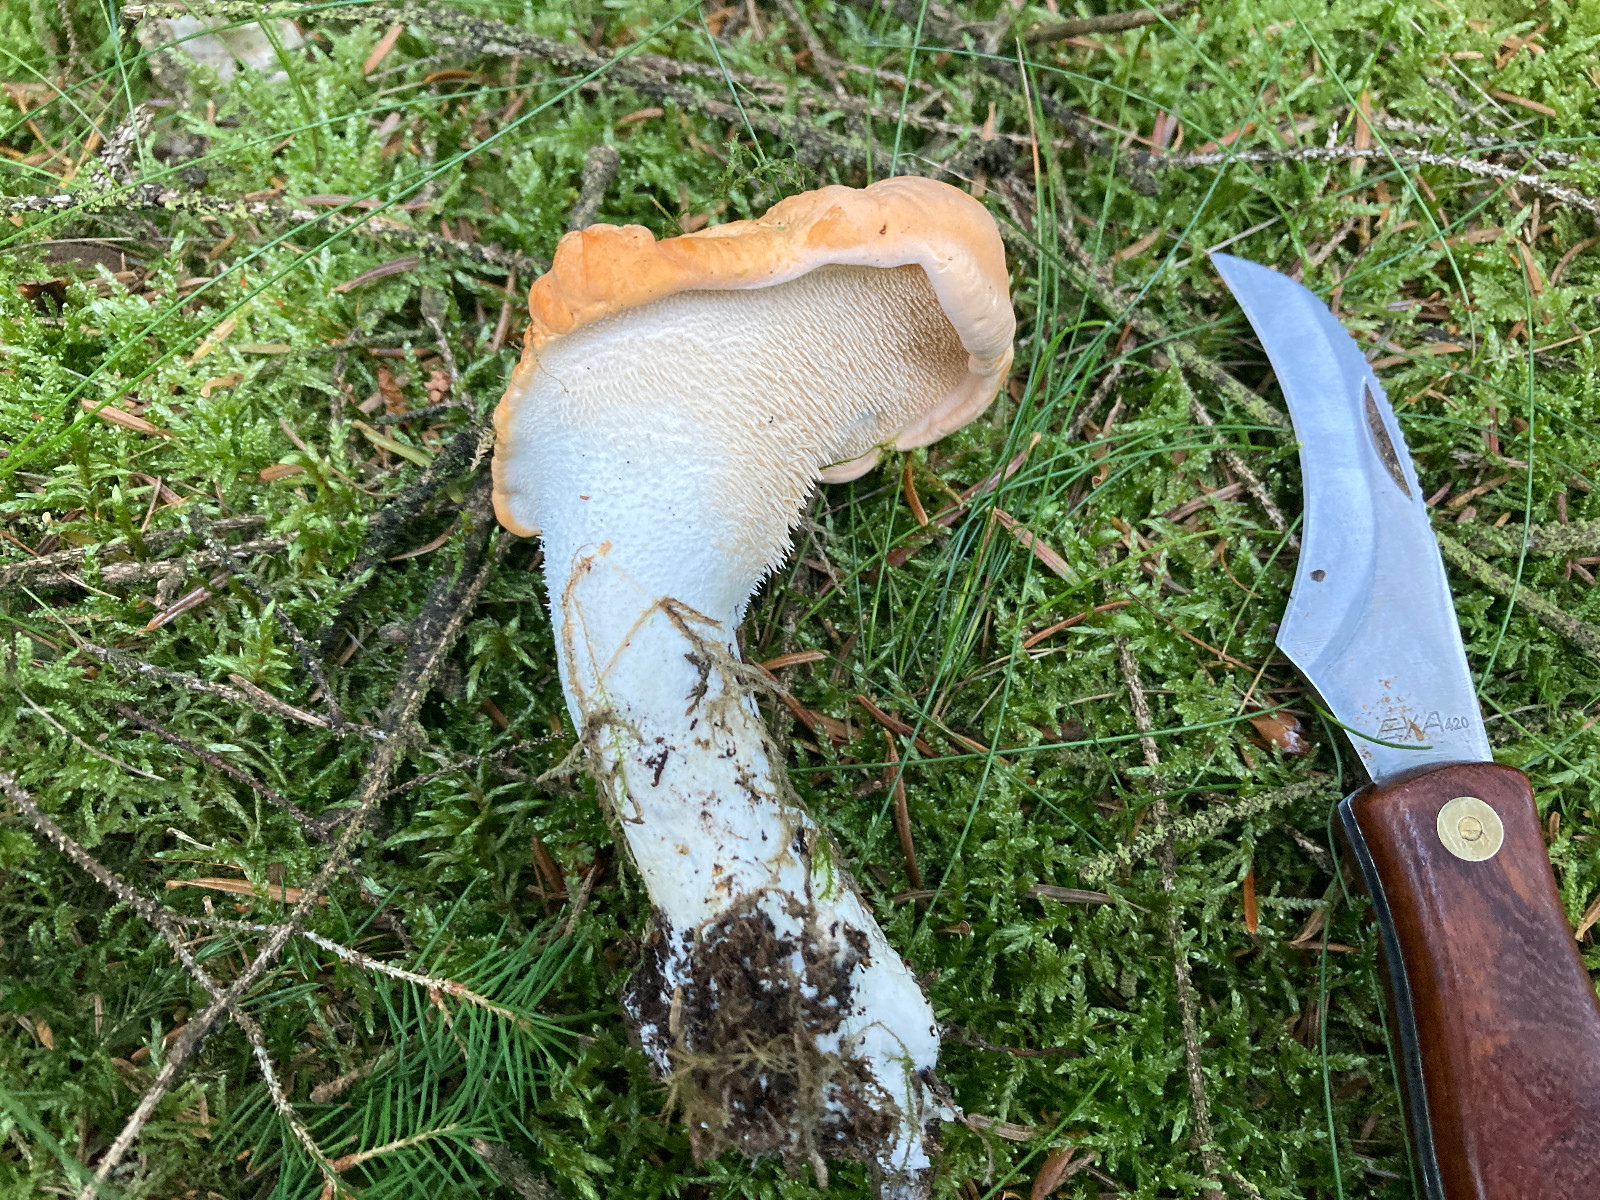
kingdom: Fungi
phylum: Basidiomycota
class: Agaricomycetes
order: Cantharellales
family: Hydnaceae
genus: Hydnum
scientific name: Hydnum repandum
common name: almindelig pigsvamp
